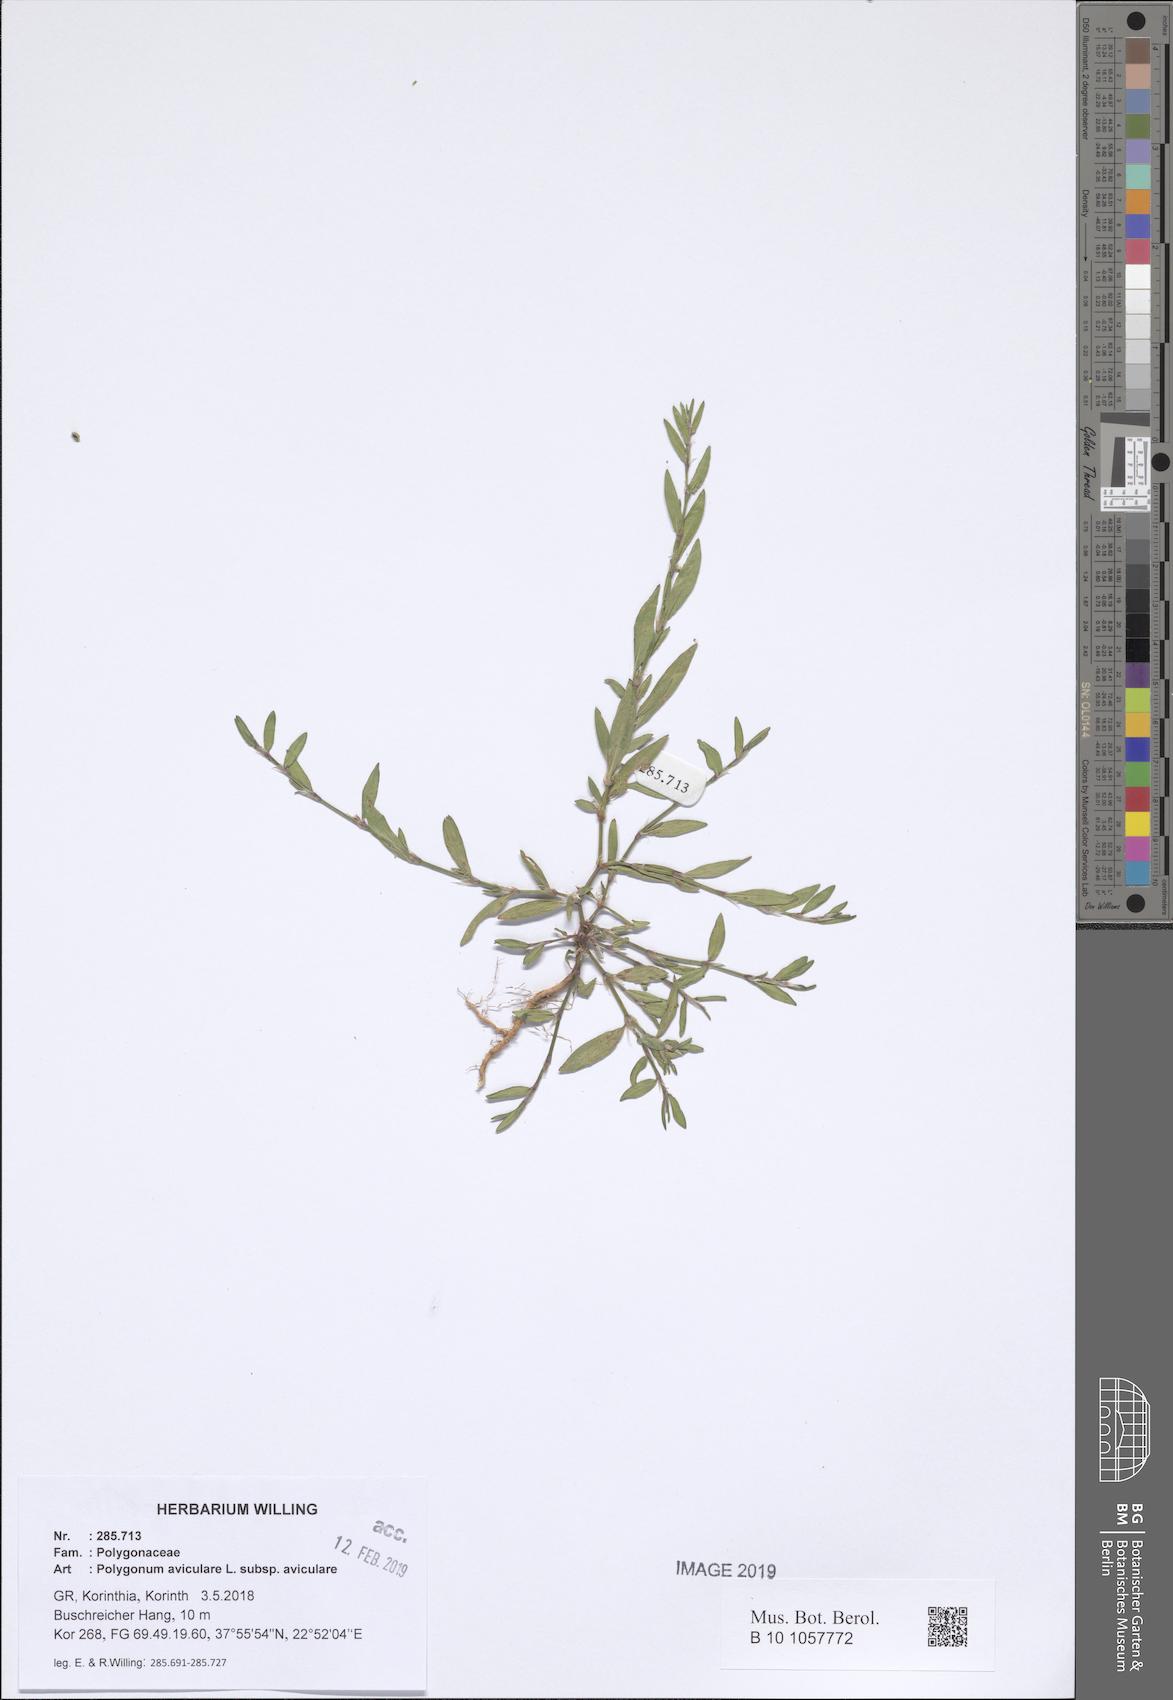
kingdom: Plantae
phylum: Tracheophyta
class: Magnoliopsida
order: Caryophyllales
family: Polygonaceae
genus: Polygonum
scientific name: Polygonum aviculare
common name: Prostrate knotweed
